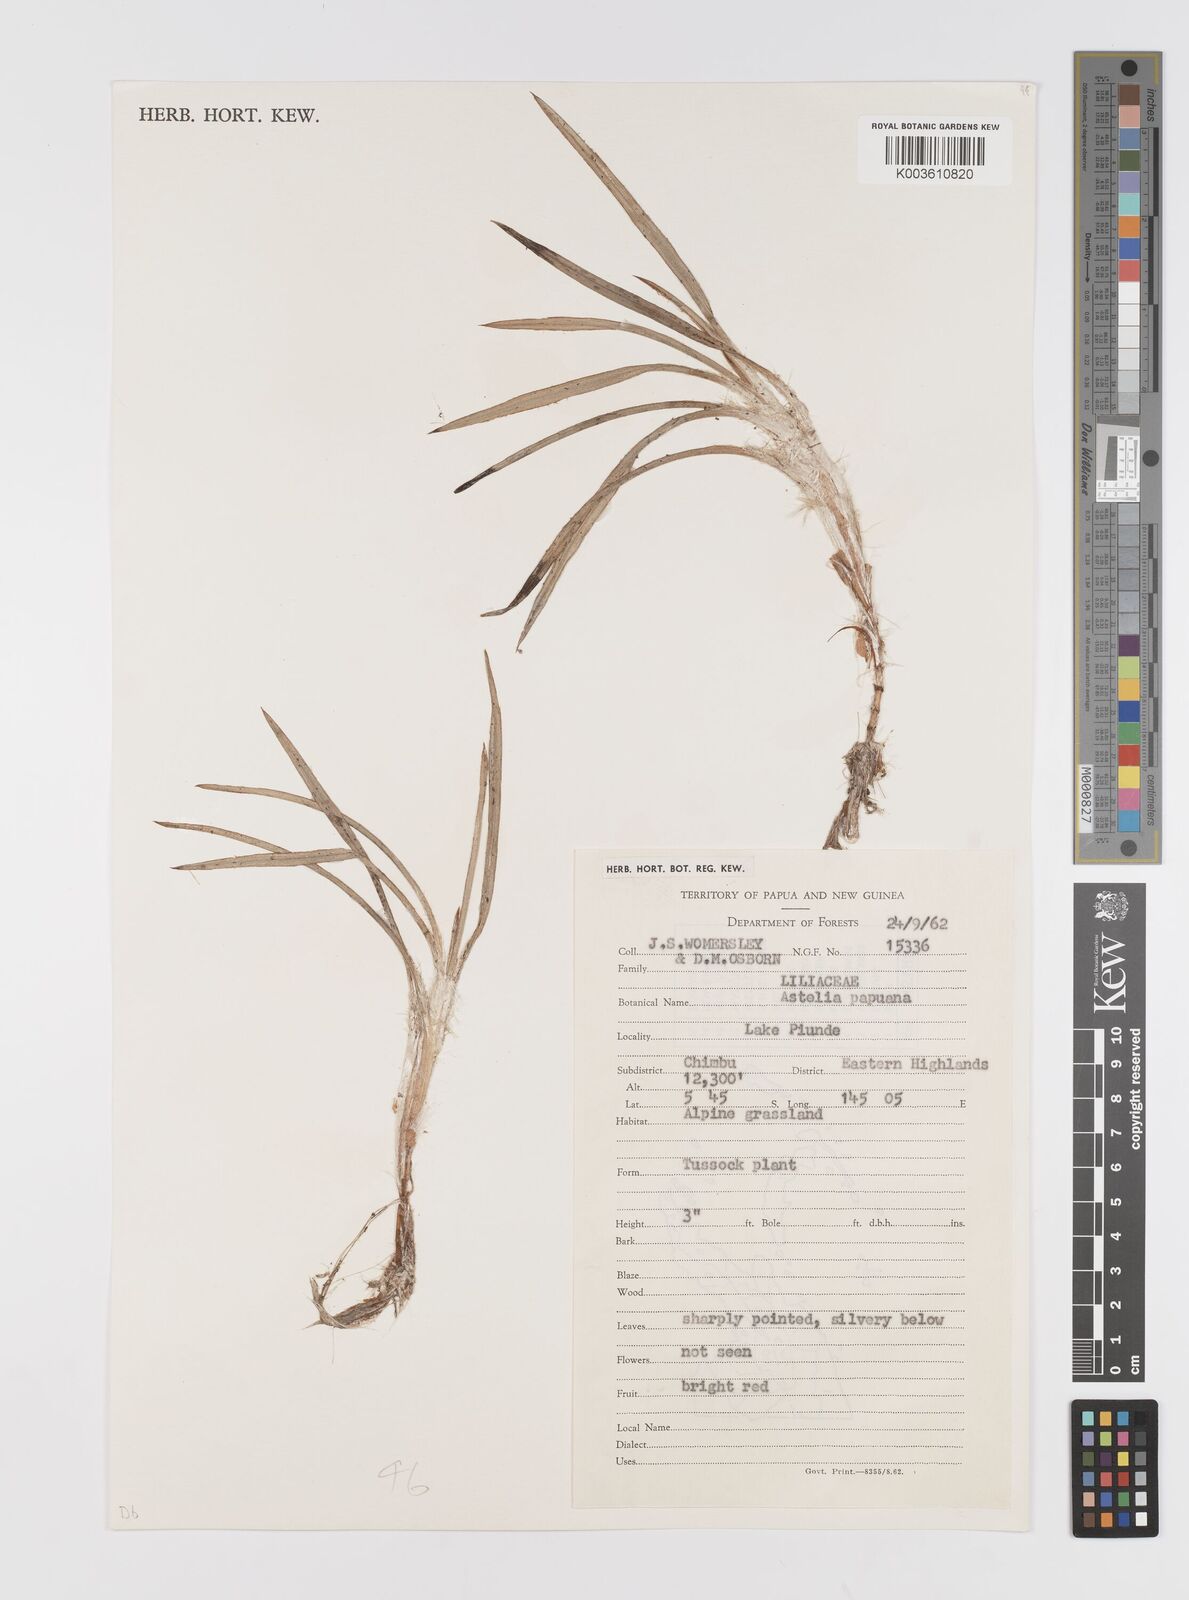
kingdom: Plantae
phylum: Tracheophyta
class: Liliopsida
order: Asparagales
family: Asteliaceae
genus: Astelia
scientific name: Astelia papuana
